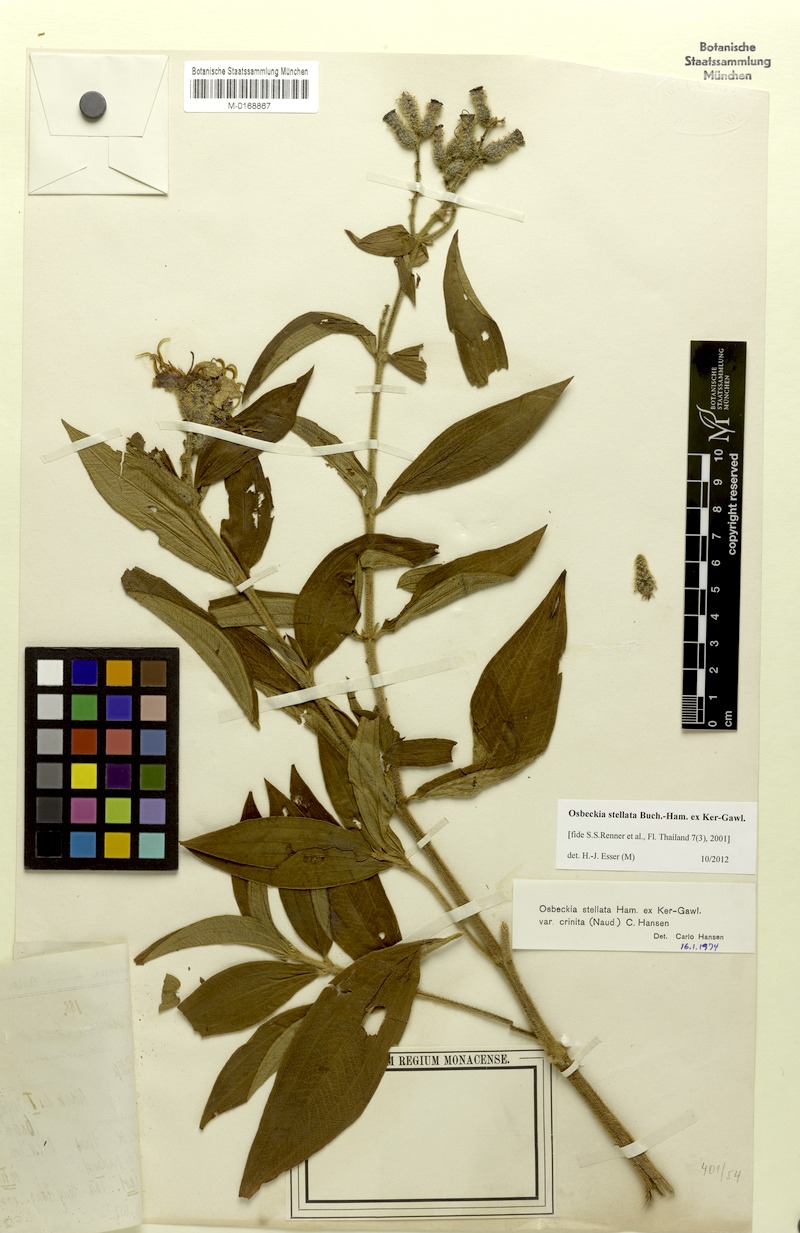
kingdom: Plantae
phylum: Tracheophyta
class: Magnoliopsida
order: Myrtales
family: Melastomataceae
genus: Osbeckia
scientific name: Osbeckia stellata
